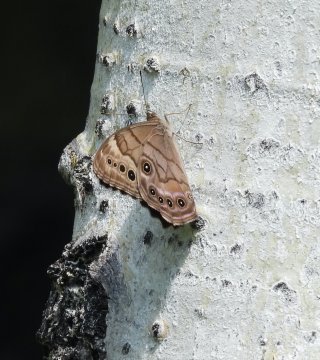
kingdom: Animalia
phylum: Arthropoda
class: Insecta
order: Lepidoptera
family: Nymphalidae
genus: Lethe
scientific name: Lethe anthedon
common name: Northern Pearly-Eye
